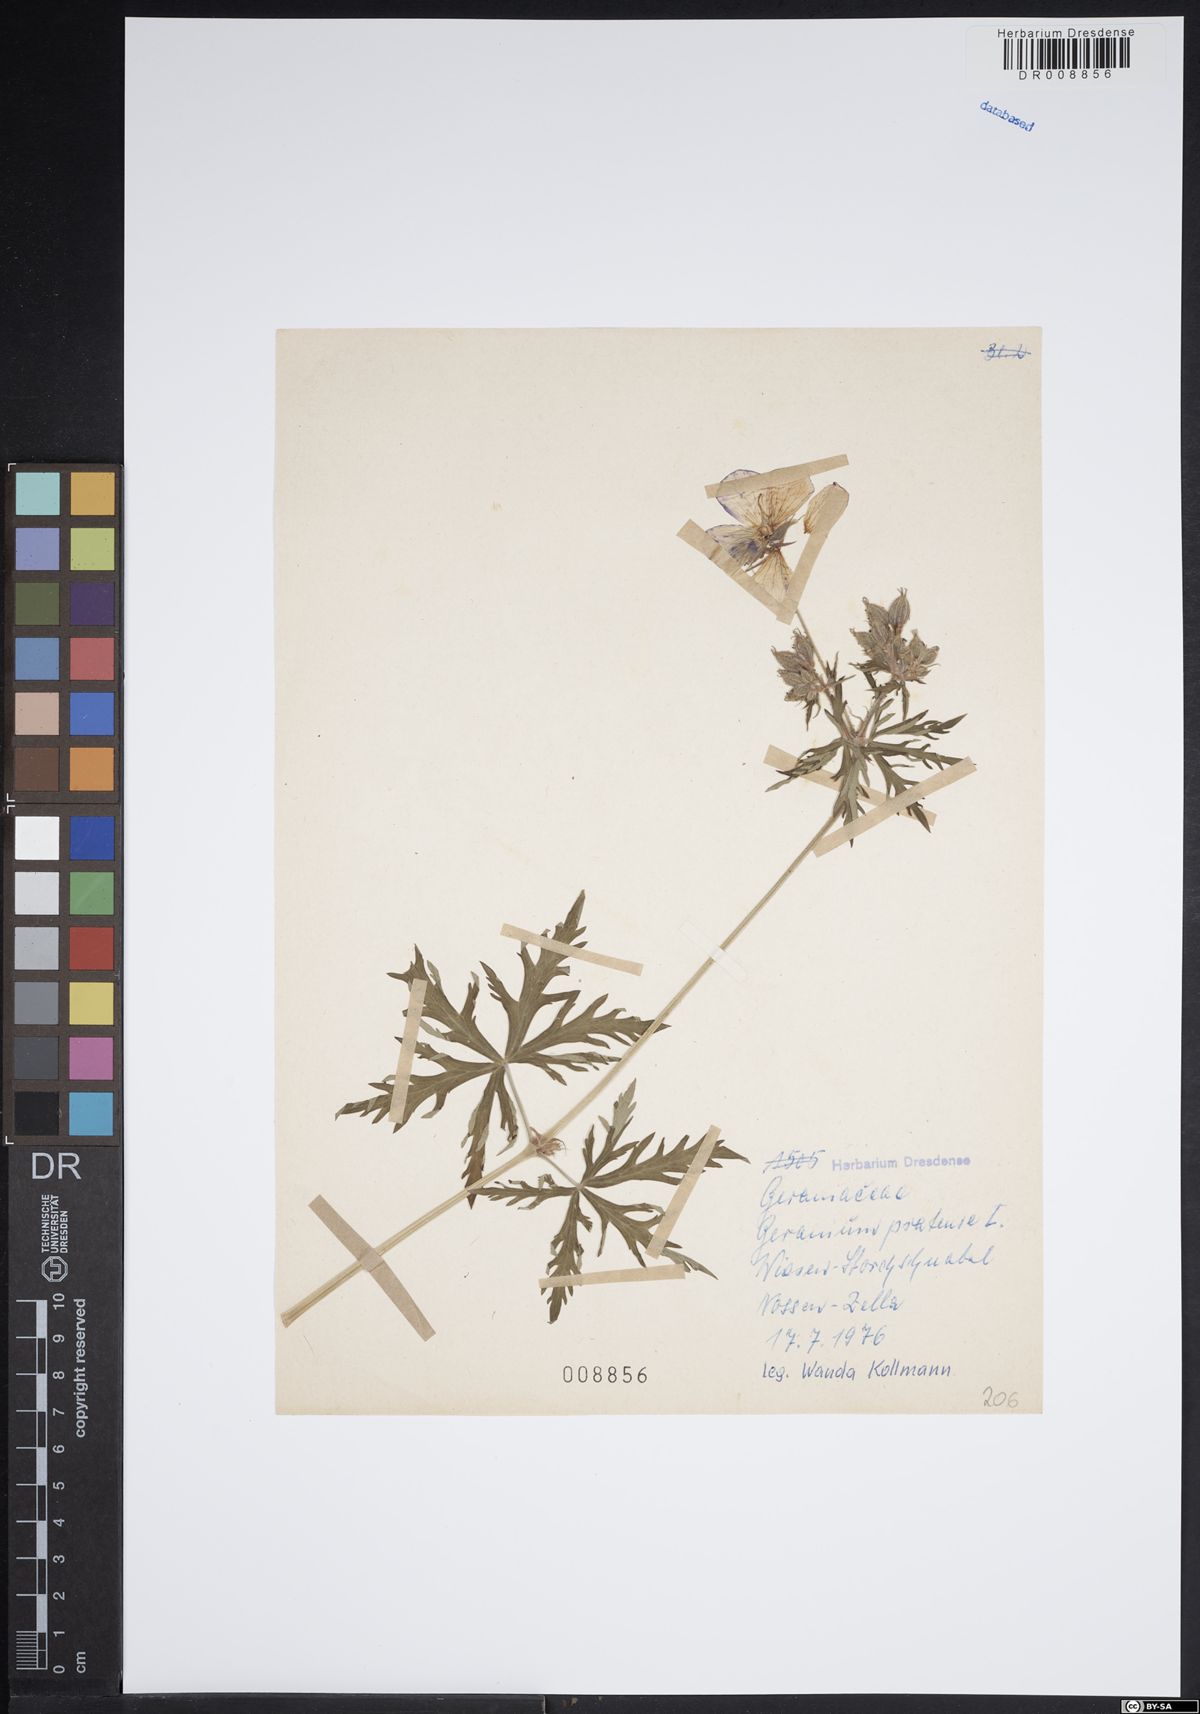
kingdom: Plantae
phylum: Tracheophyta
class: Magnoliopsida
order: Geraniales
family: Geraniaceae
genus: Geranium
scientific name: Geranium pratense
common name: Meadow crane's-bill
